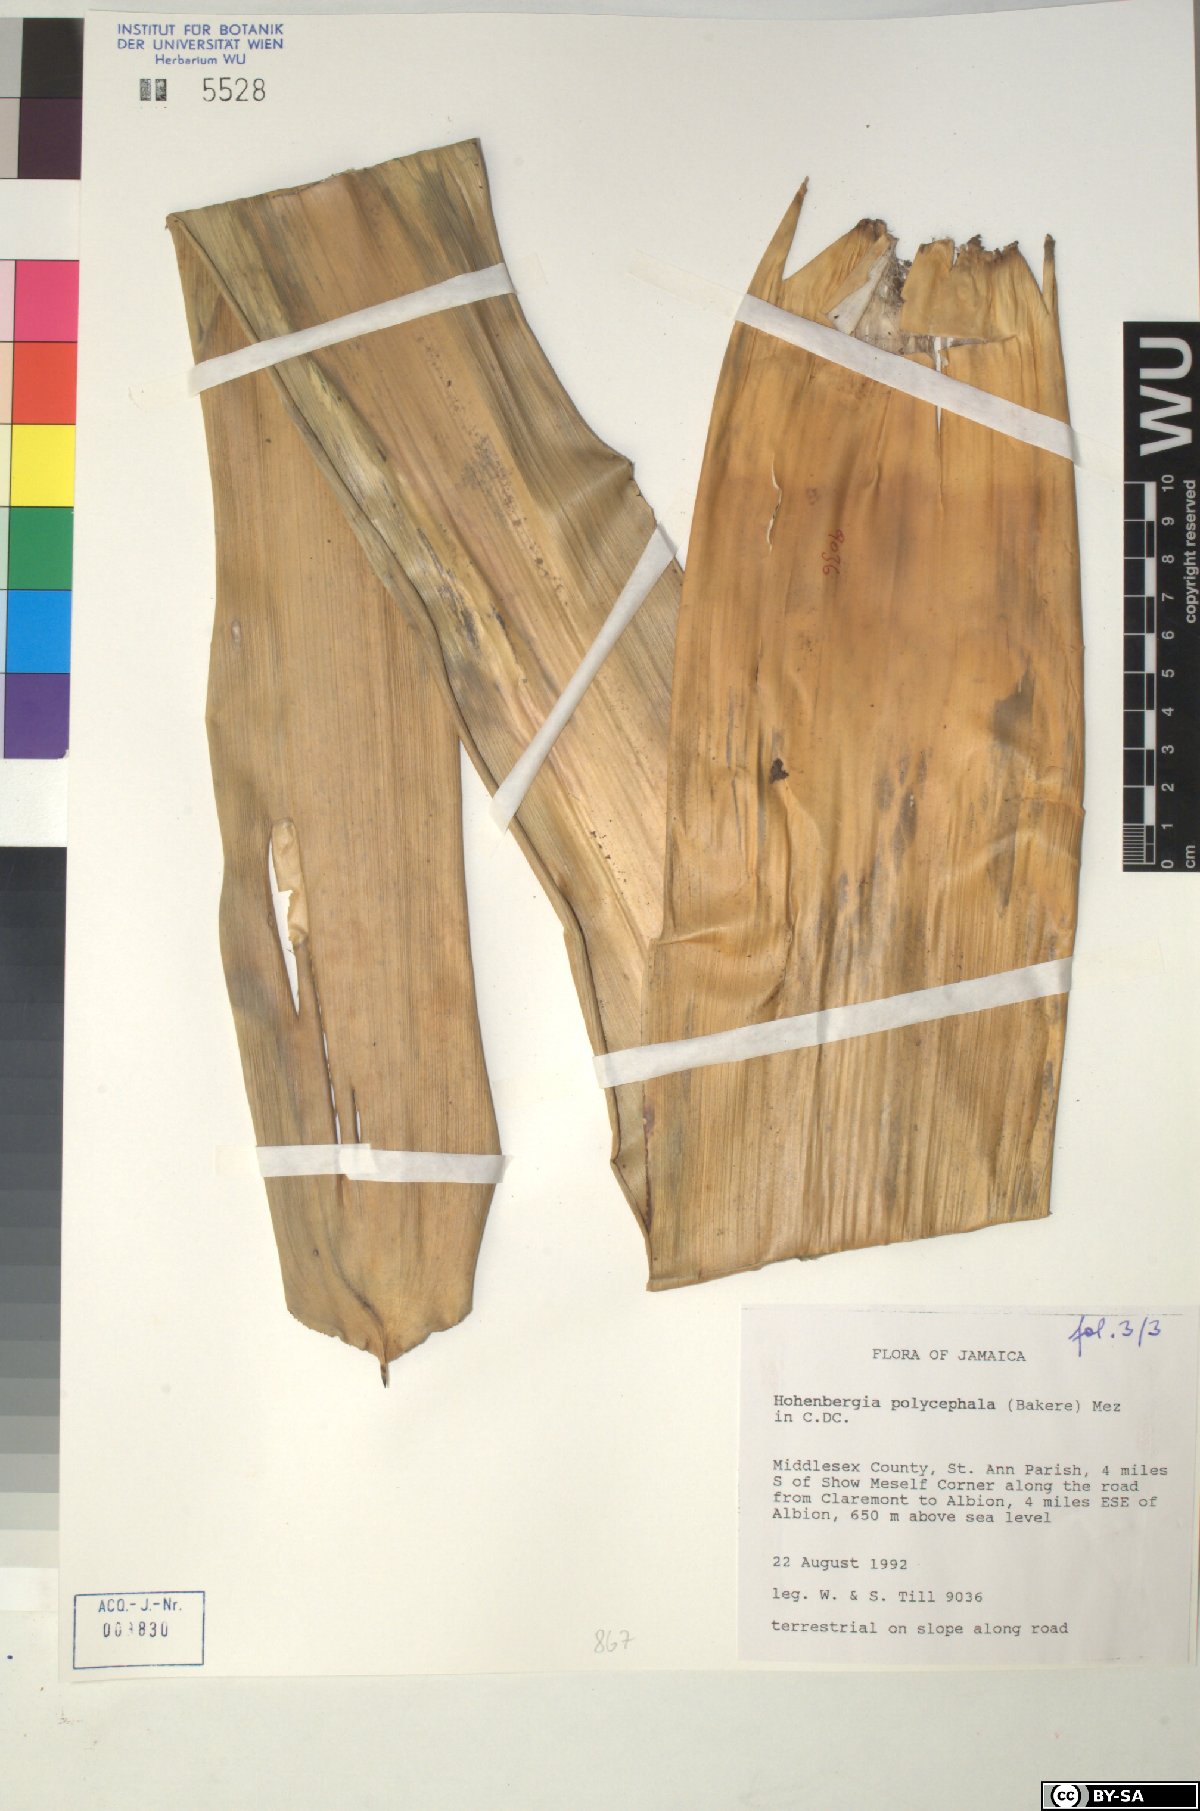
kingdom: Plantae
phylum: Tracheophyta
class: Liliopsida
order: Poales
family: Bromeliaceae
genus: Wittmackia
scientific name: Wittmackia polycephala
